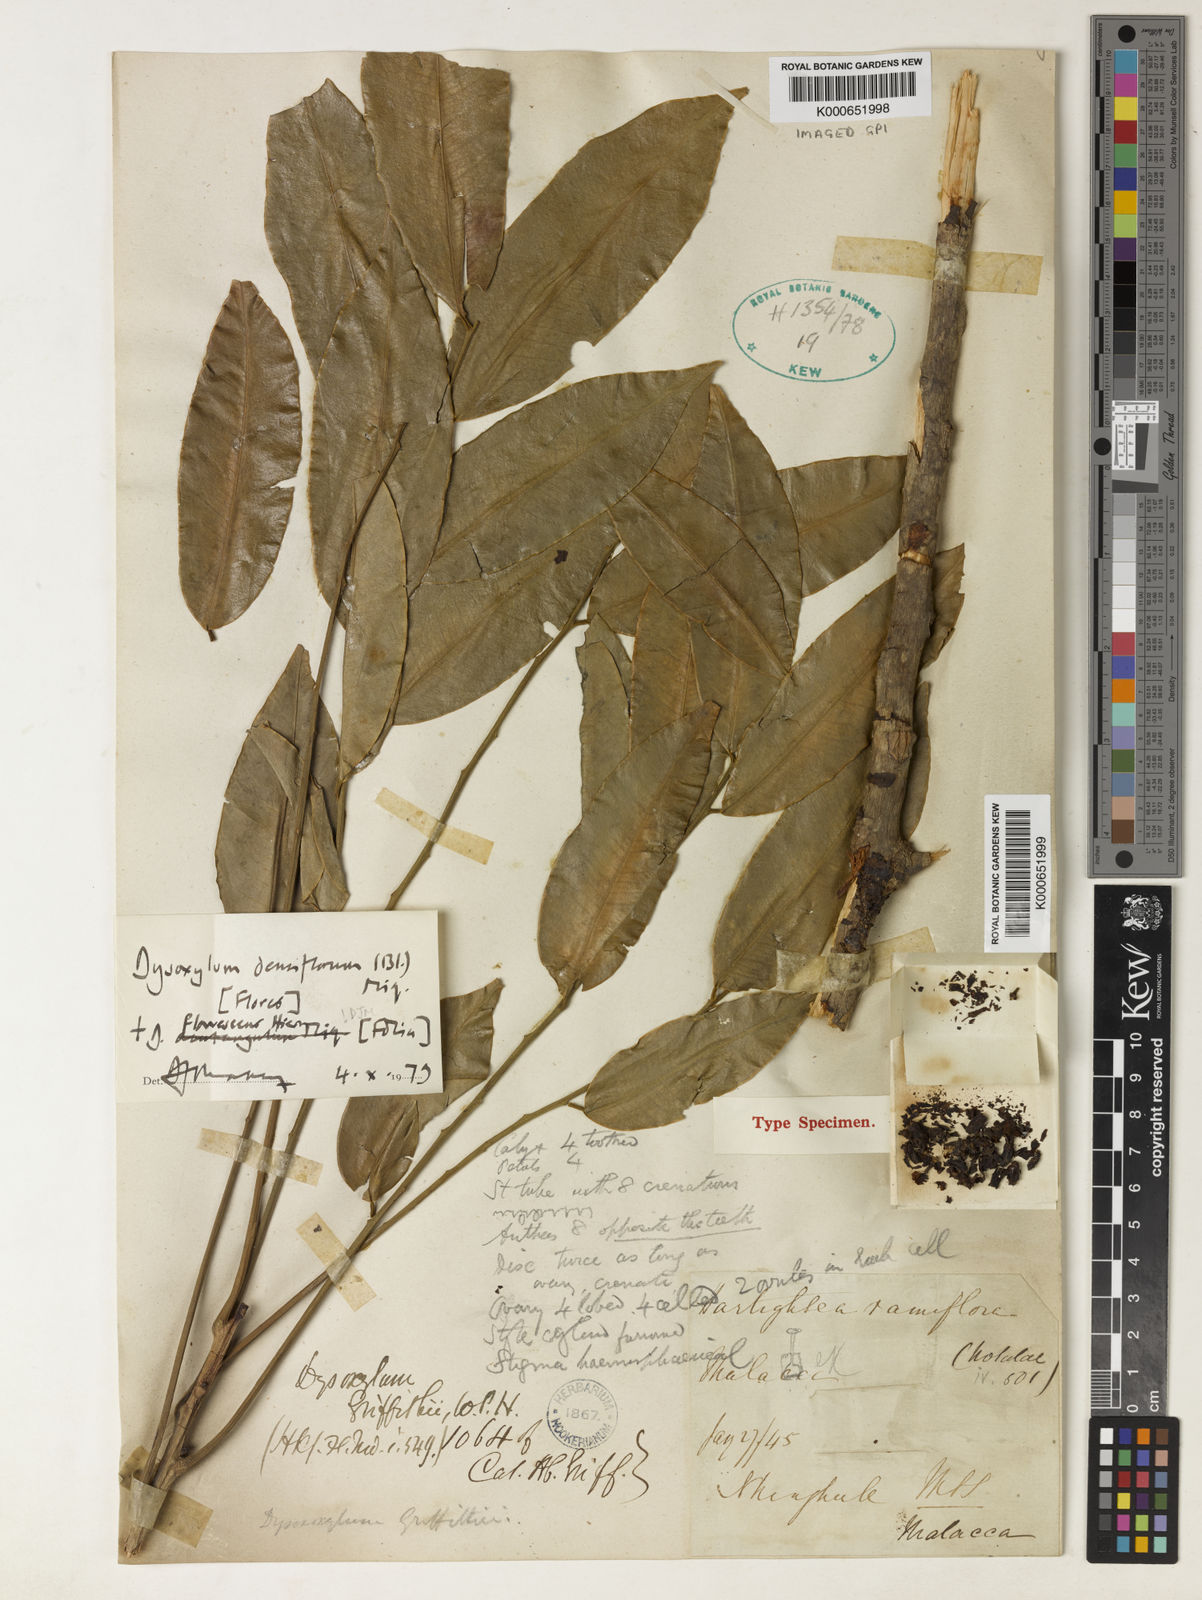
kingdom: Plantae
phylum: Tracheophyta
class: Magnoliopsida
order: Sapindales
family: Meliaceae
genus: Dysoxylum
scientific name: Dysoxylum flavescens
